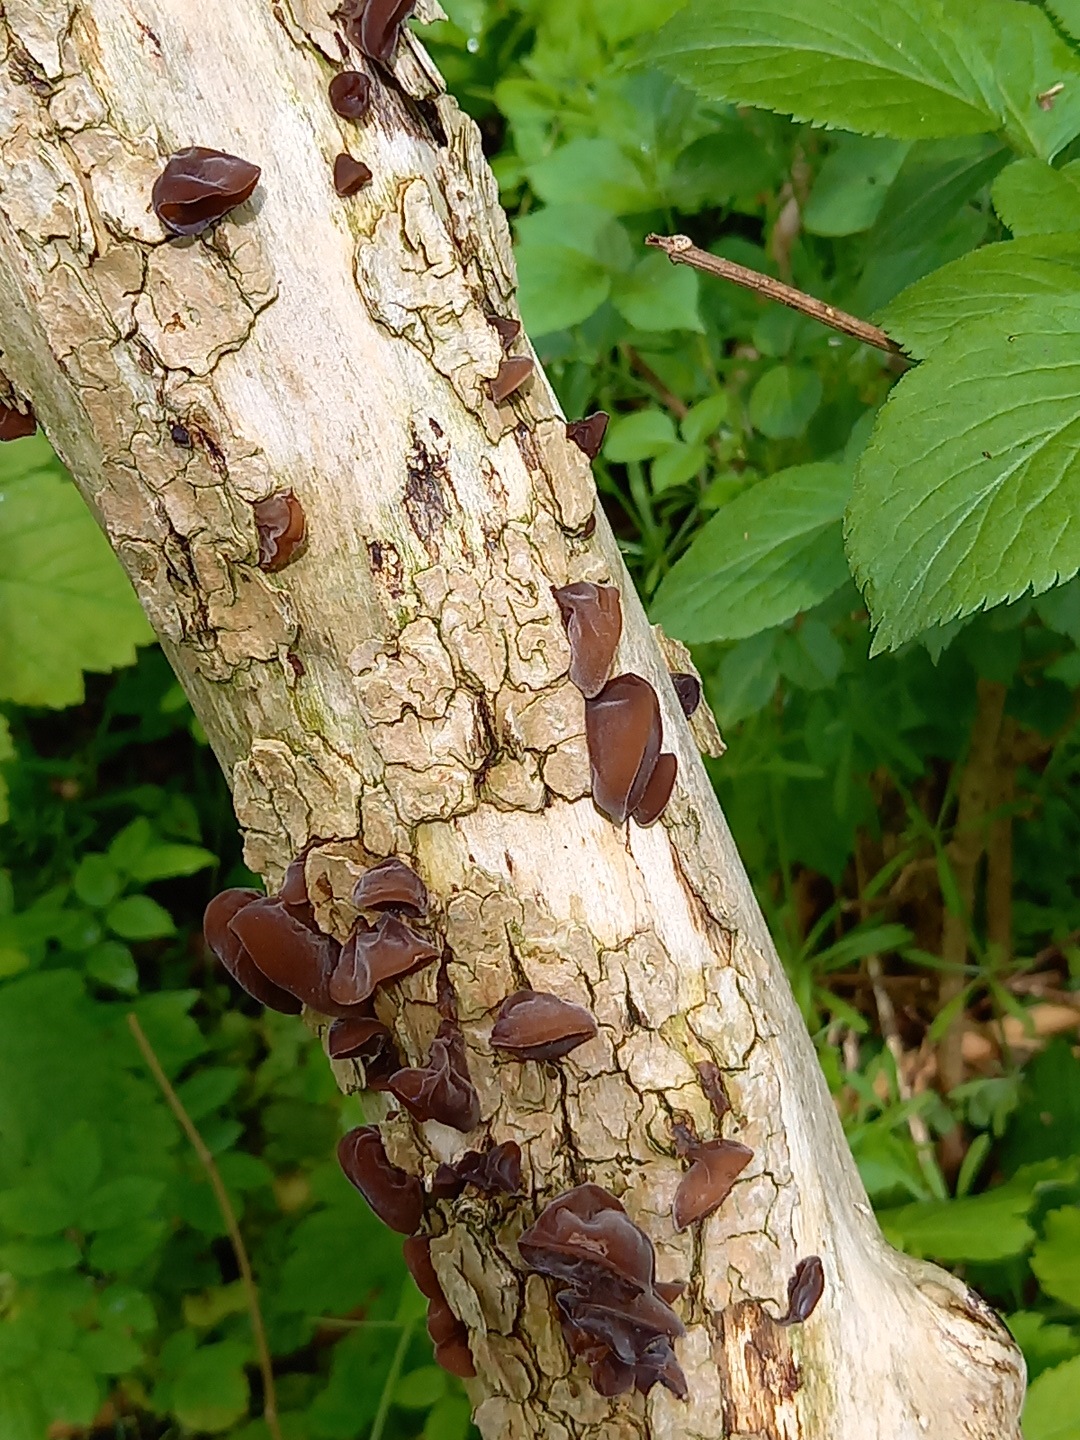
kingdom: Fungi
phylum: Basidiomycota
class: Agaricomycetes
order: Auriculariales
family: Auriculariaceae
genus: Auricularia
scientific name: Auricularia auricula-judae
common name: almindelig judasøre
